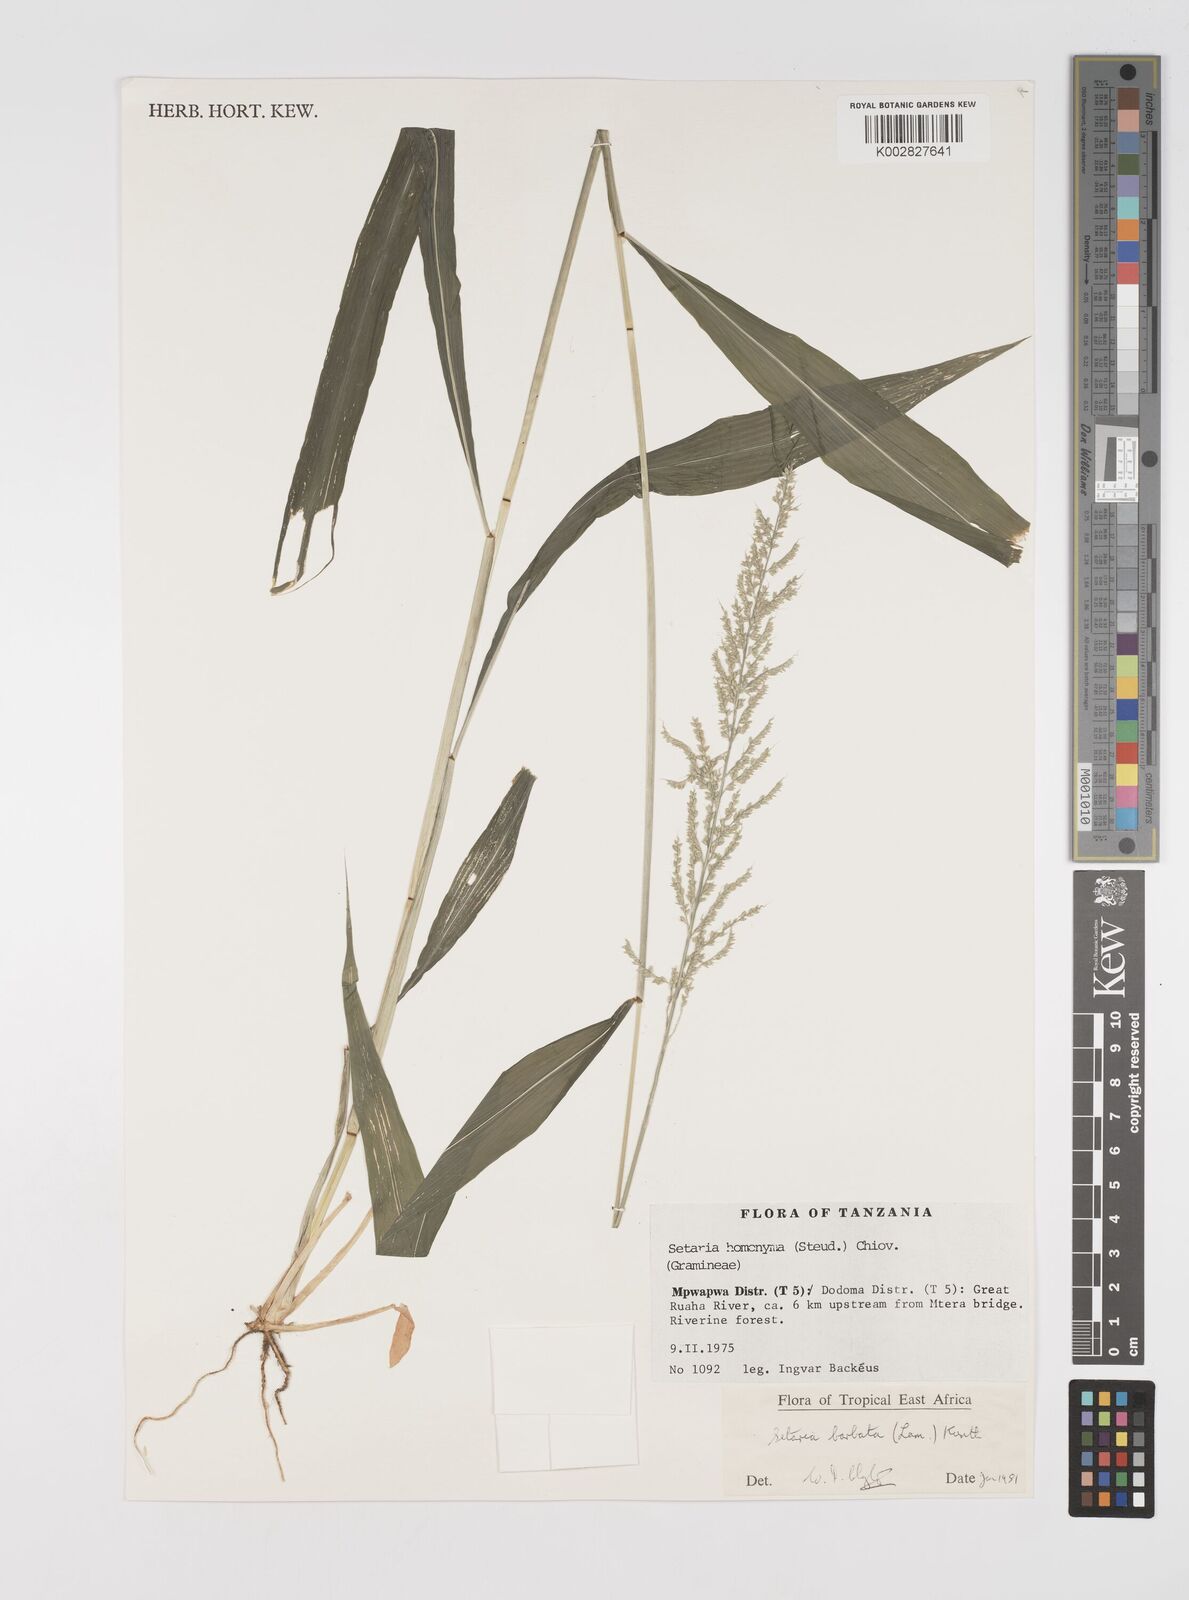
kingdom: Plantae
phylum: Tracheophyta
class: Liliopsida
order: Poales
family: Poaceae
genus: Setaria
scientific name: Setaria barbata
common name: East indian bristlegrass
